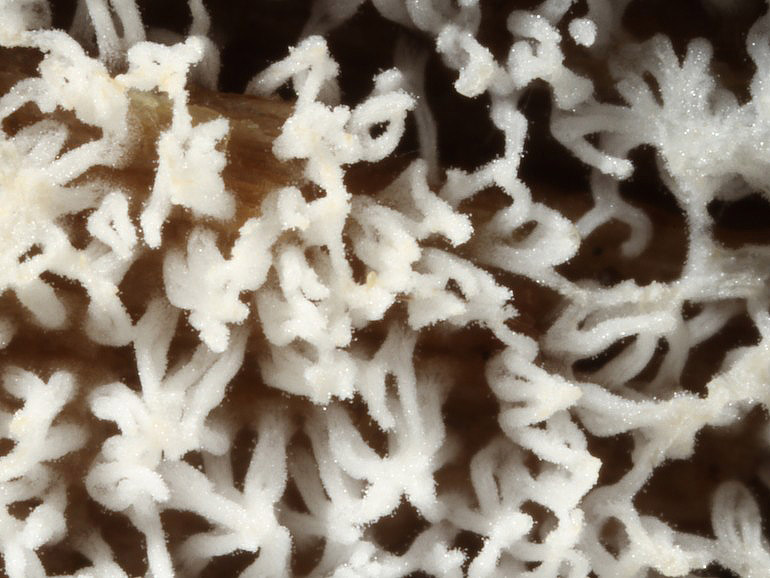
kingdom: Protozoa
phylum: Mycetozoa
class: Protosteliomycetes
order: Ceratiomyxales
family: Ceratiomyxaceae
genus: Ceratiomyxa
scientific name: Ceratiomyxa fruticulosa
